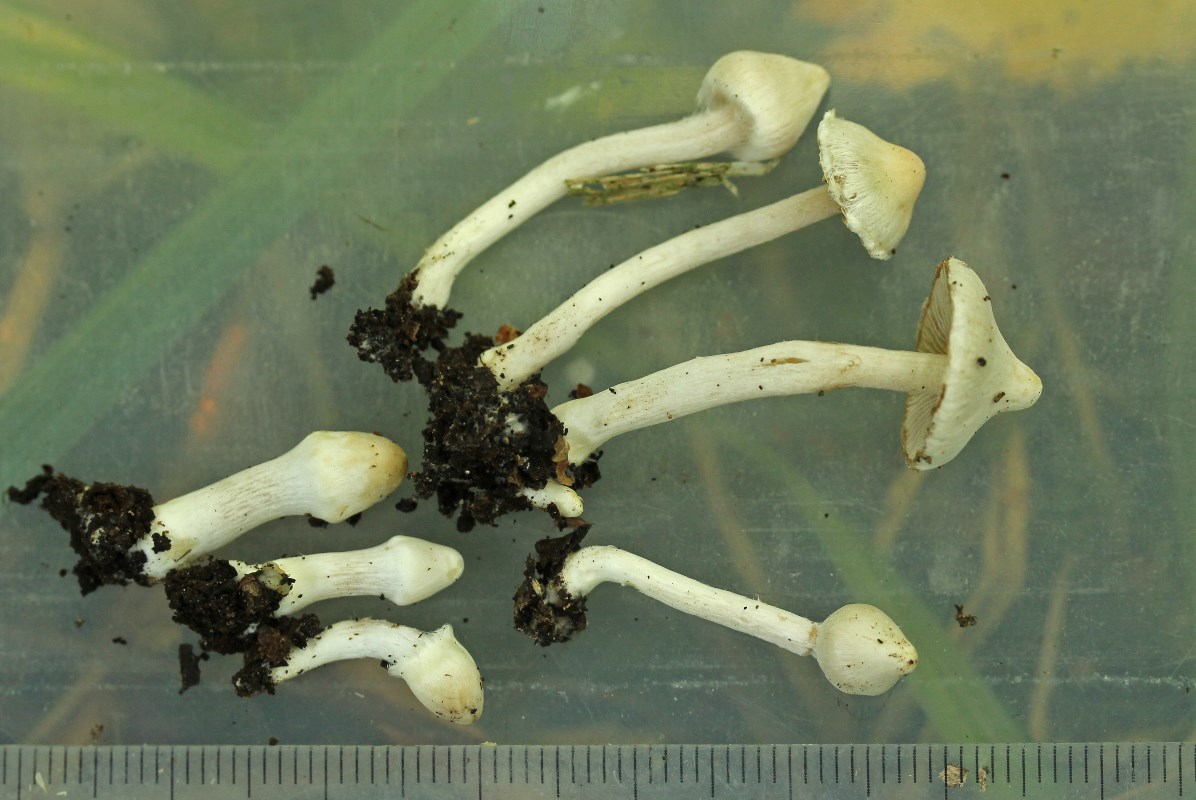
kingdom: Fungi
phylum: Basidiomycota
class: Agaricomycetes
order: Agaricales
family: Inocybaceae
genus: Inocybe
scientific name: Inocybe bellidiana
